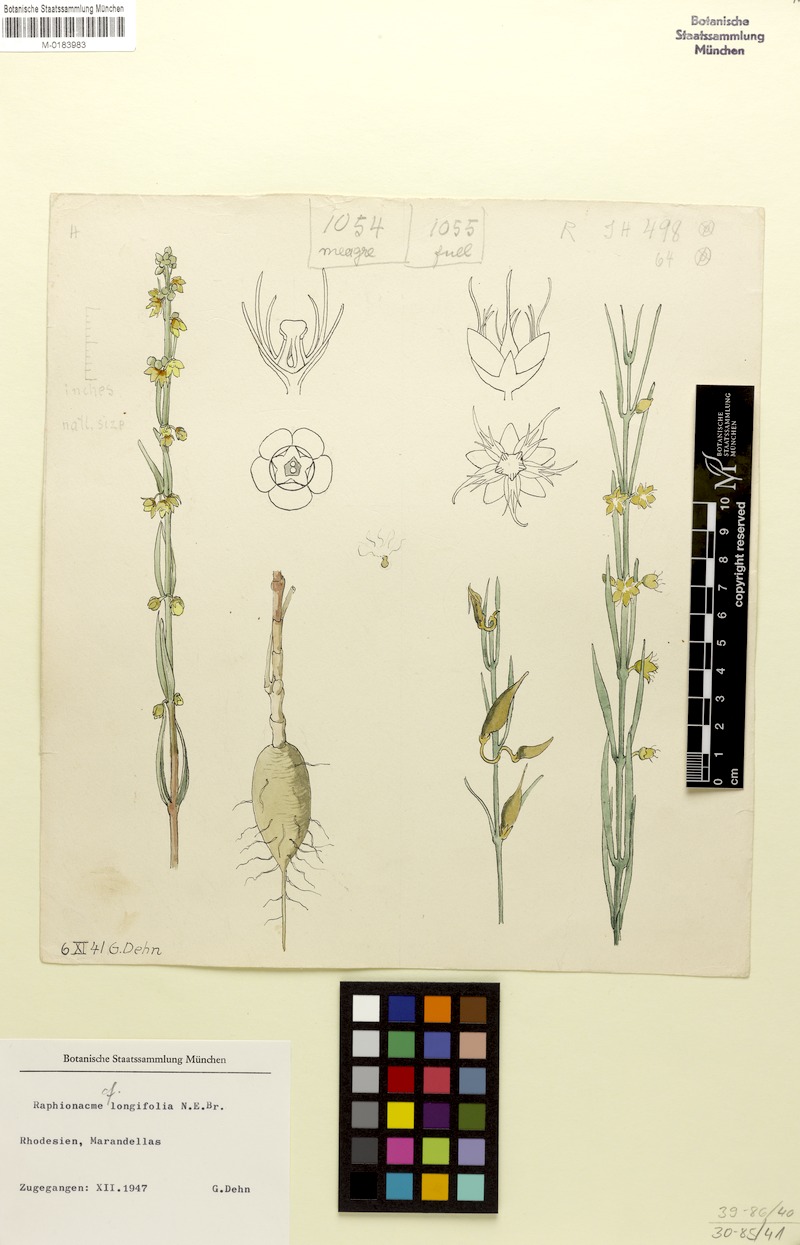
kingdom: Plantae
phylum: Tracheophyta
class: Magnoliopsida
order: Gentianales
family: Apocynaceae
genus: Raphionacme
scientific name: Raphionacme longifolia
